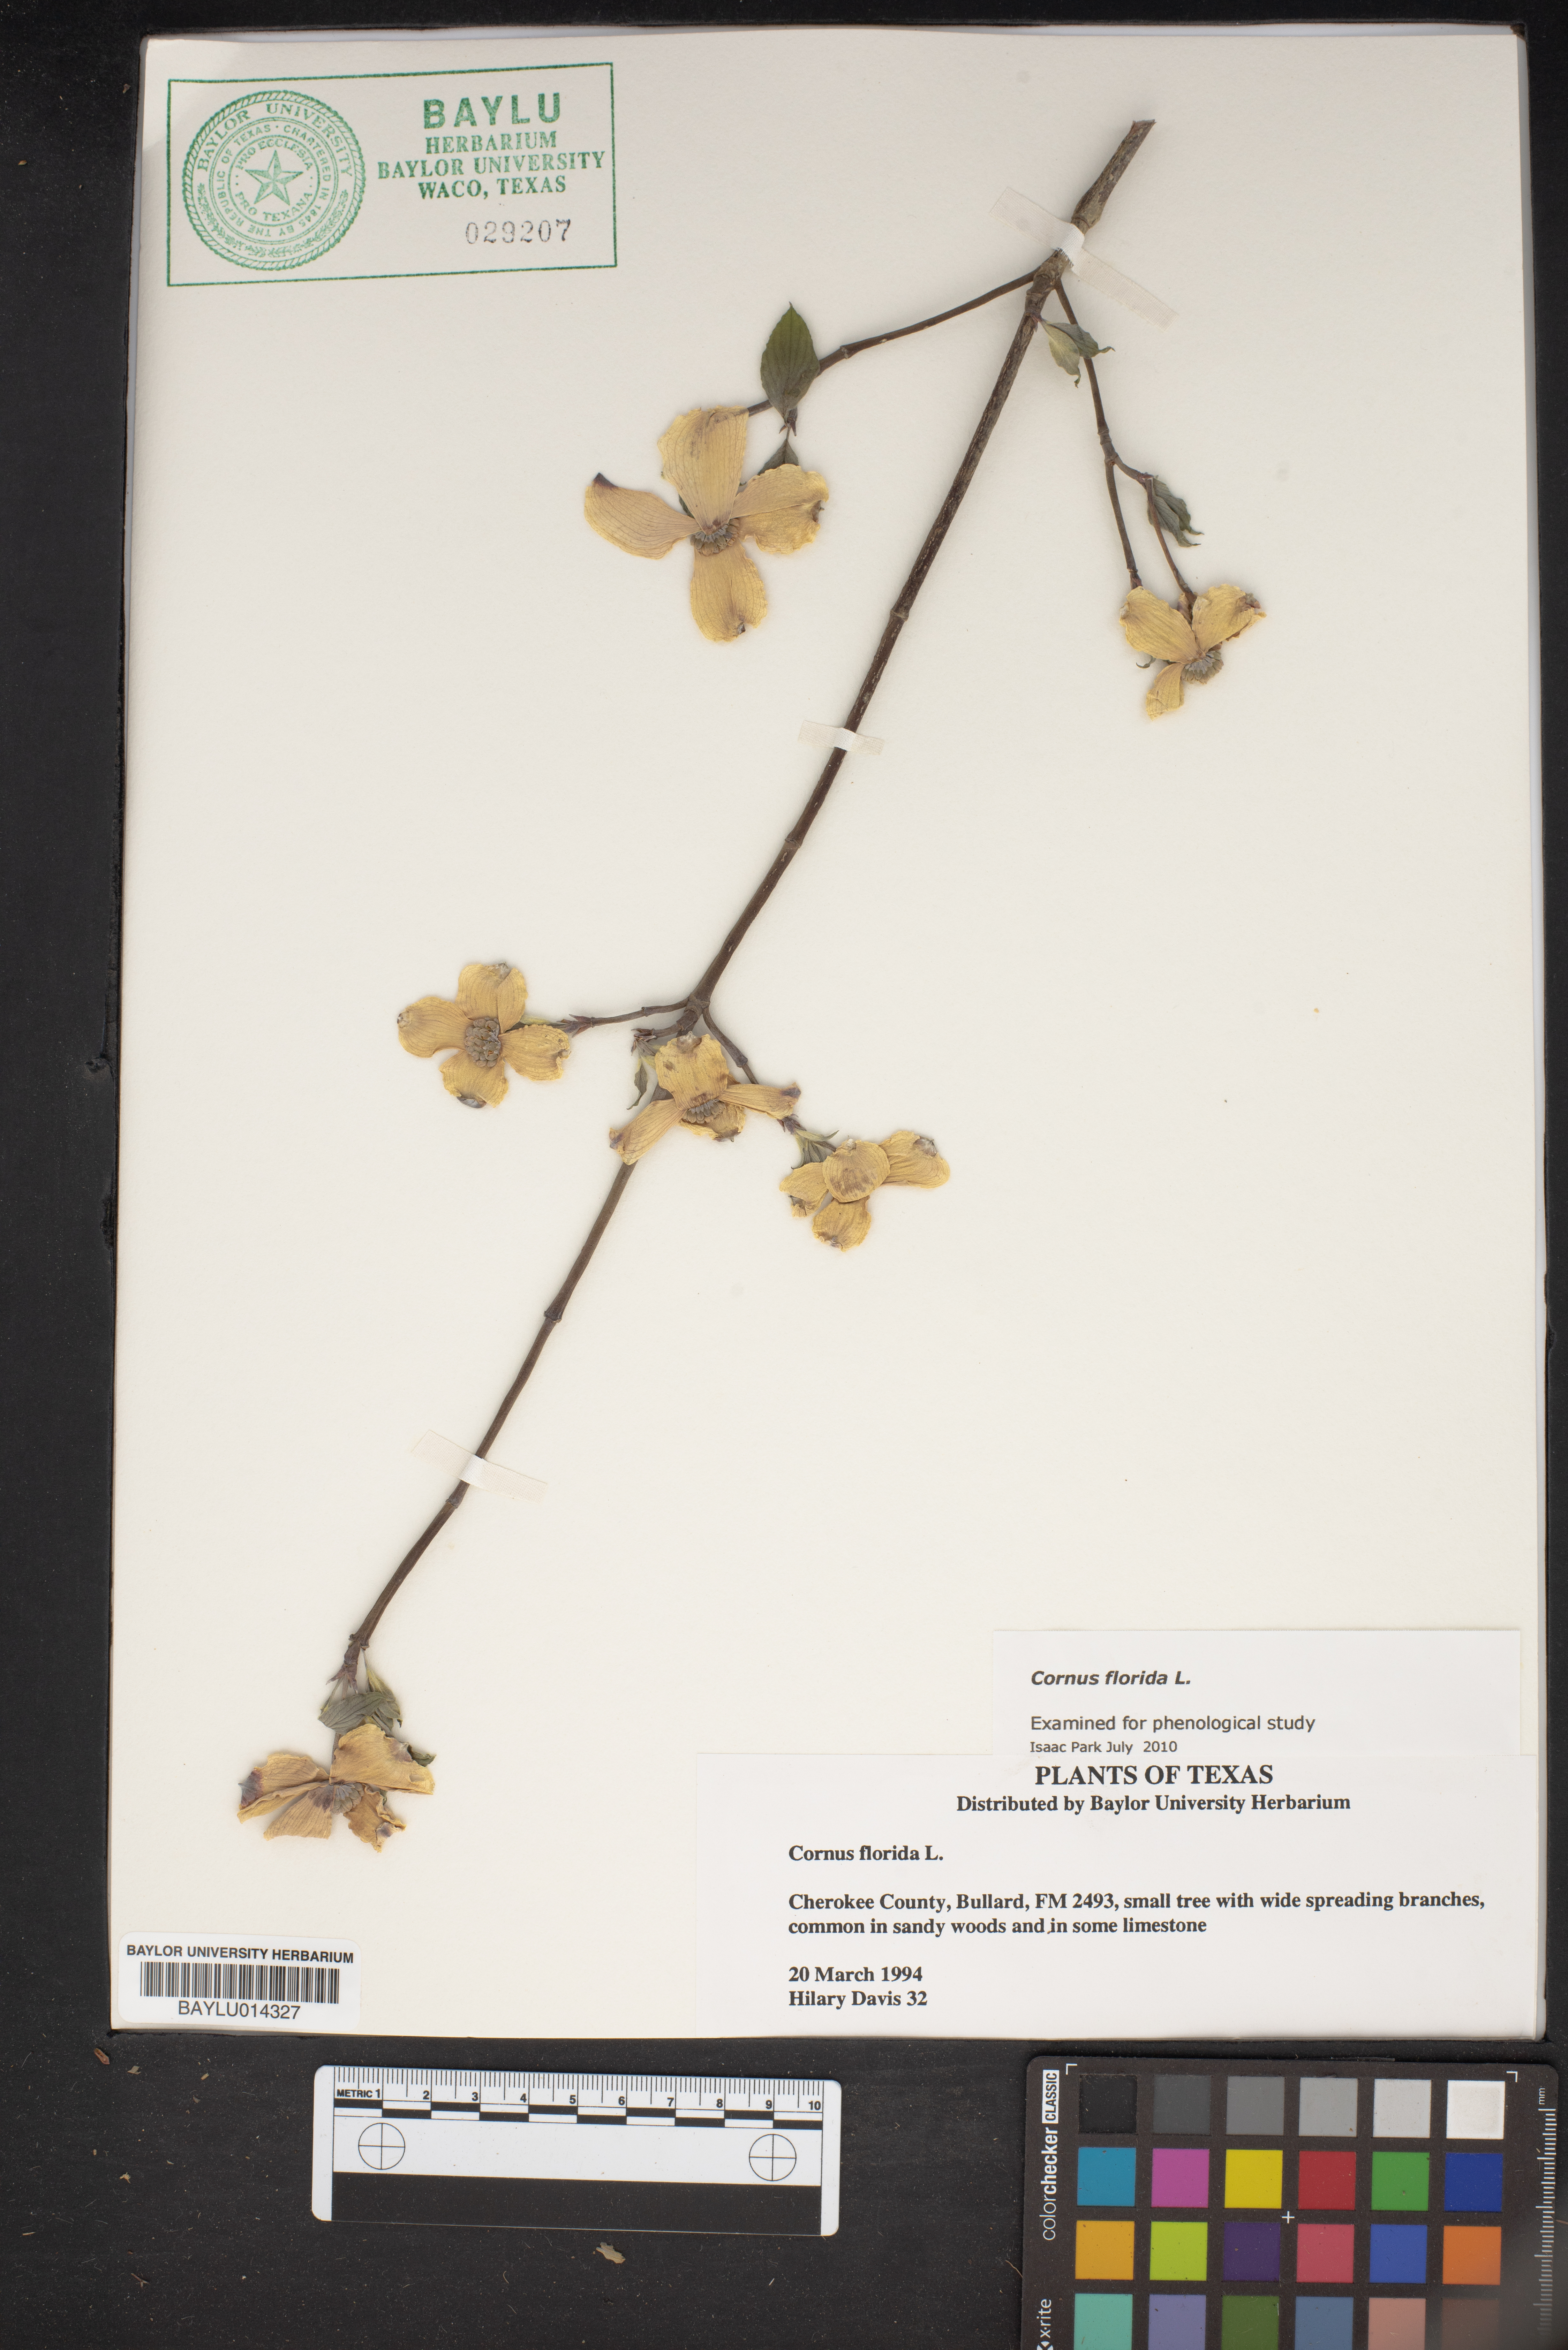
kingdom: Plantae
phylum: Tracheophyta
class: Magnoliopsida
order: Cornales
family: Cornaceae
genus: Cornus
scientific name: Cornus florida
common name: Flowering dogwood
